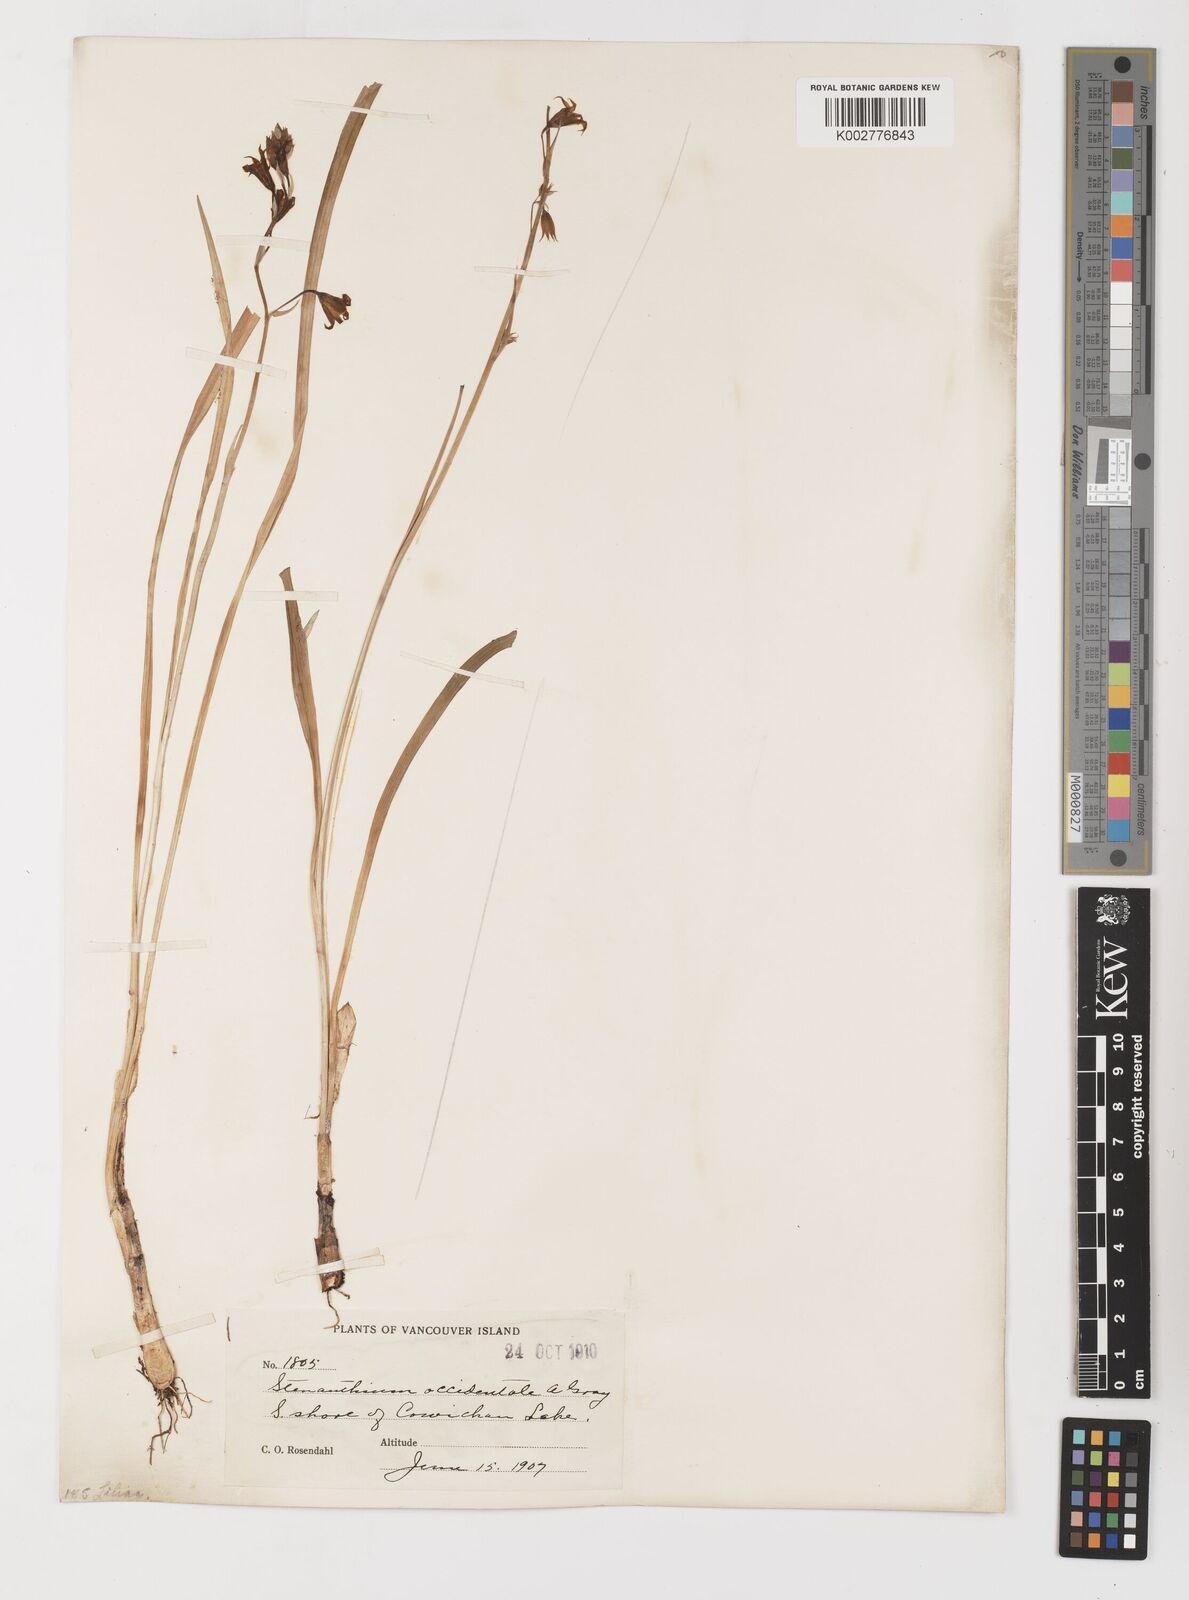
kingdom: Plantae
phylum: Tracheophyta
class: Liliopsida
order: Liliales
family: Melanthiaceae
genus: Anticlea
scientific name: Anticlea occidentalis
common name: Bronze-bells
